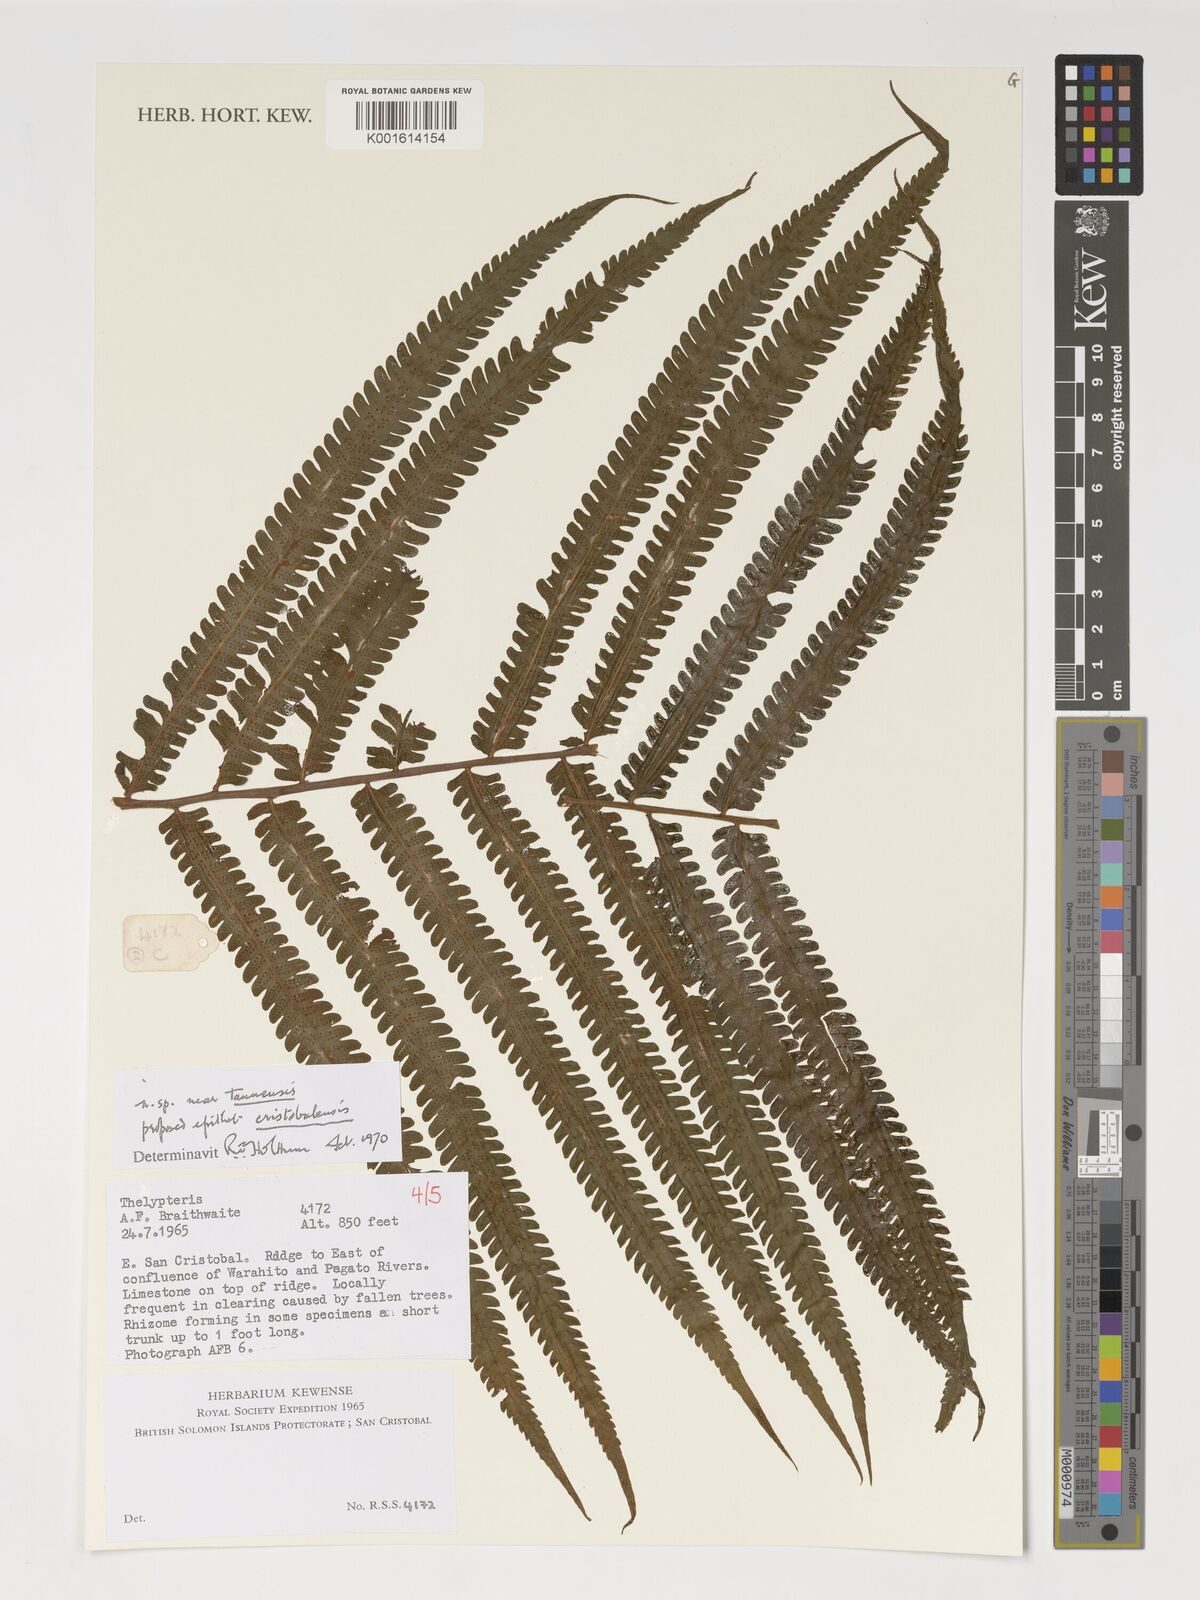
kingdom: Plantae
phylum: Tracheophyta
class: Polypodiopsida
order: Polypodiales
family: Thelypteridaceae
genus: Thelypteris
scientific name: Thelypteris
